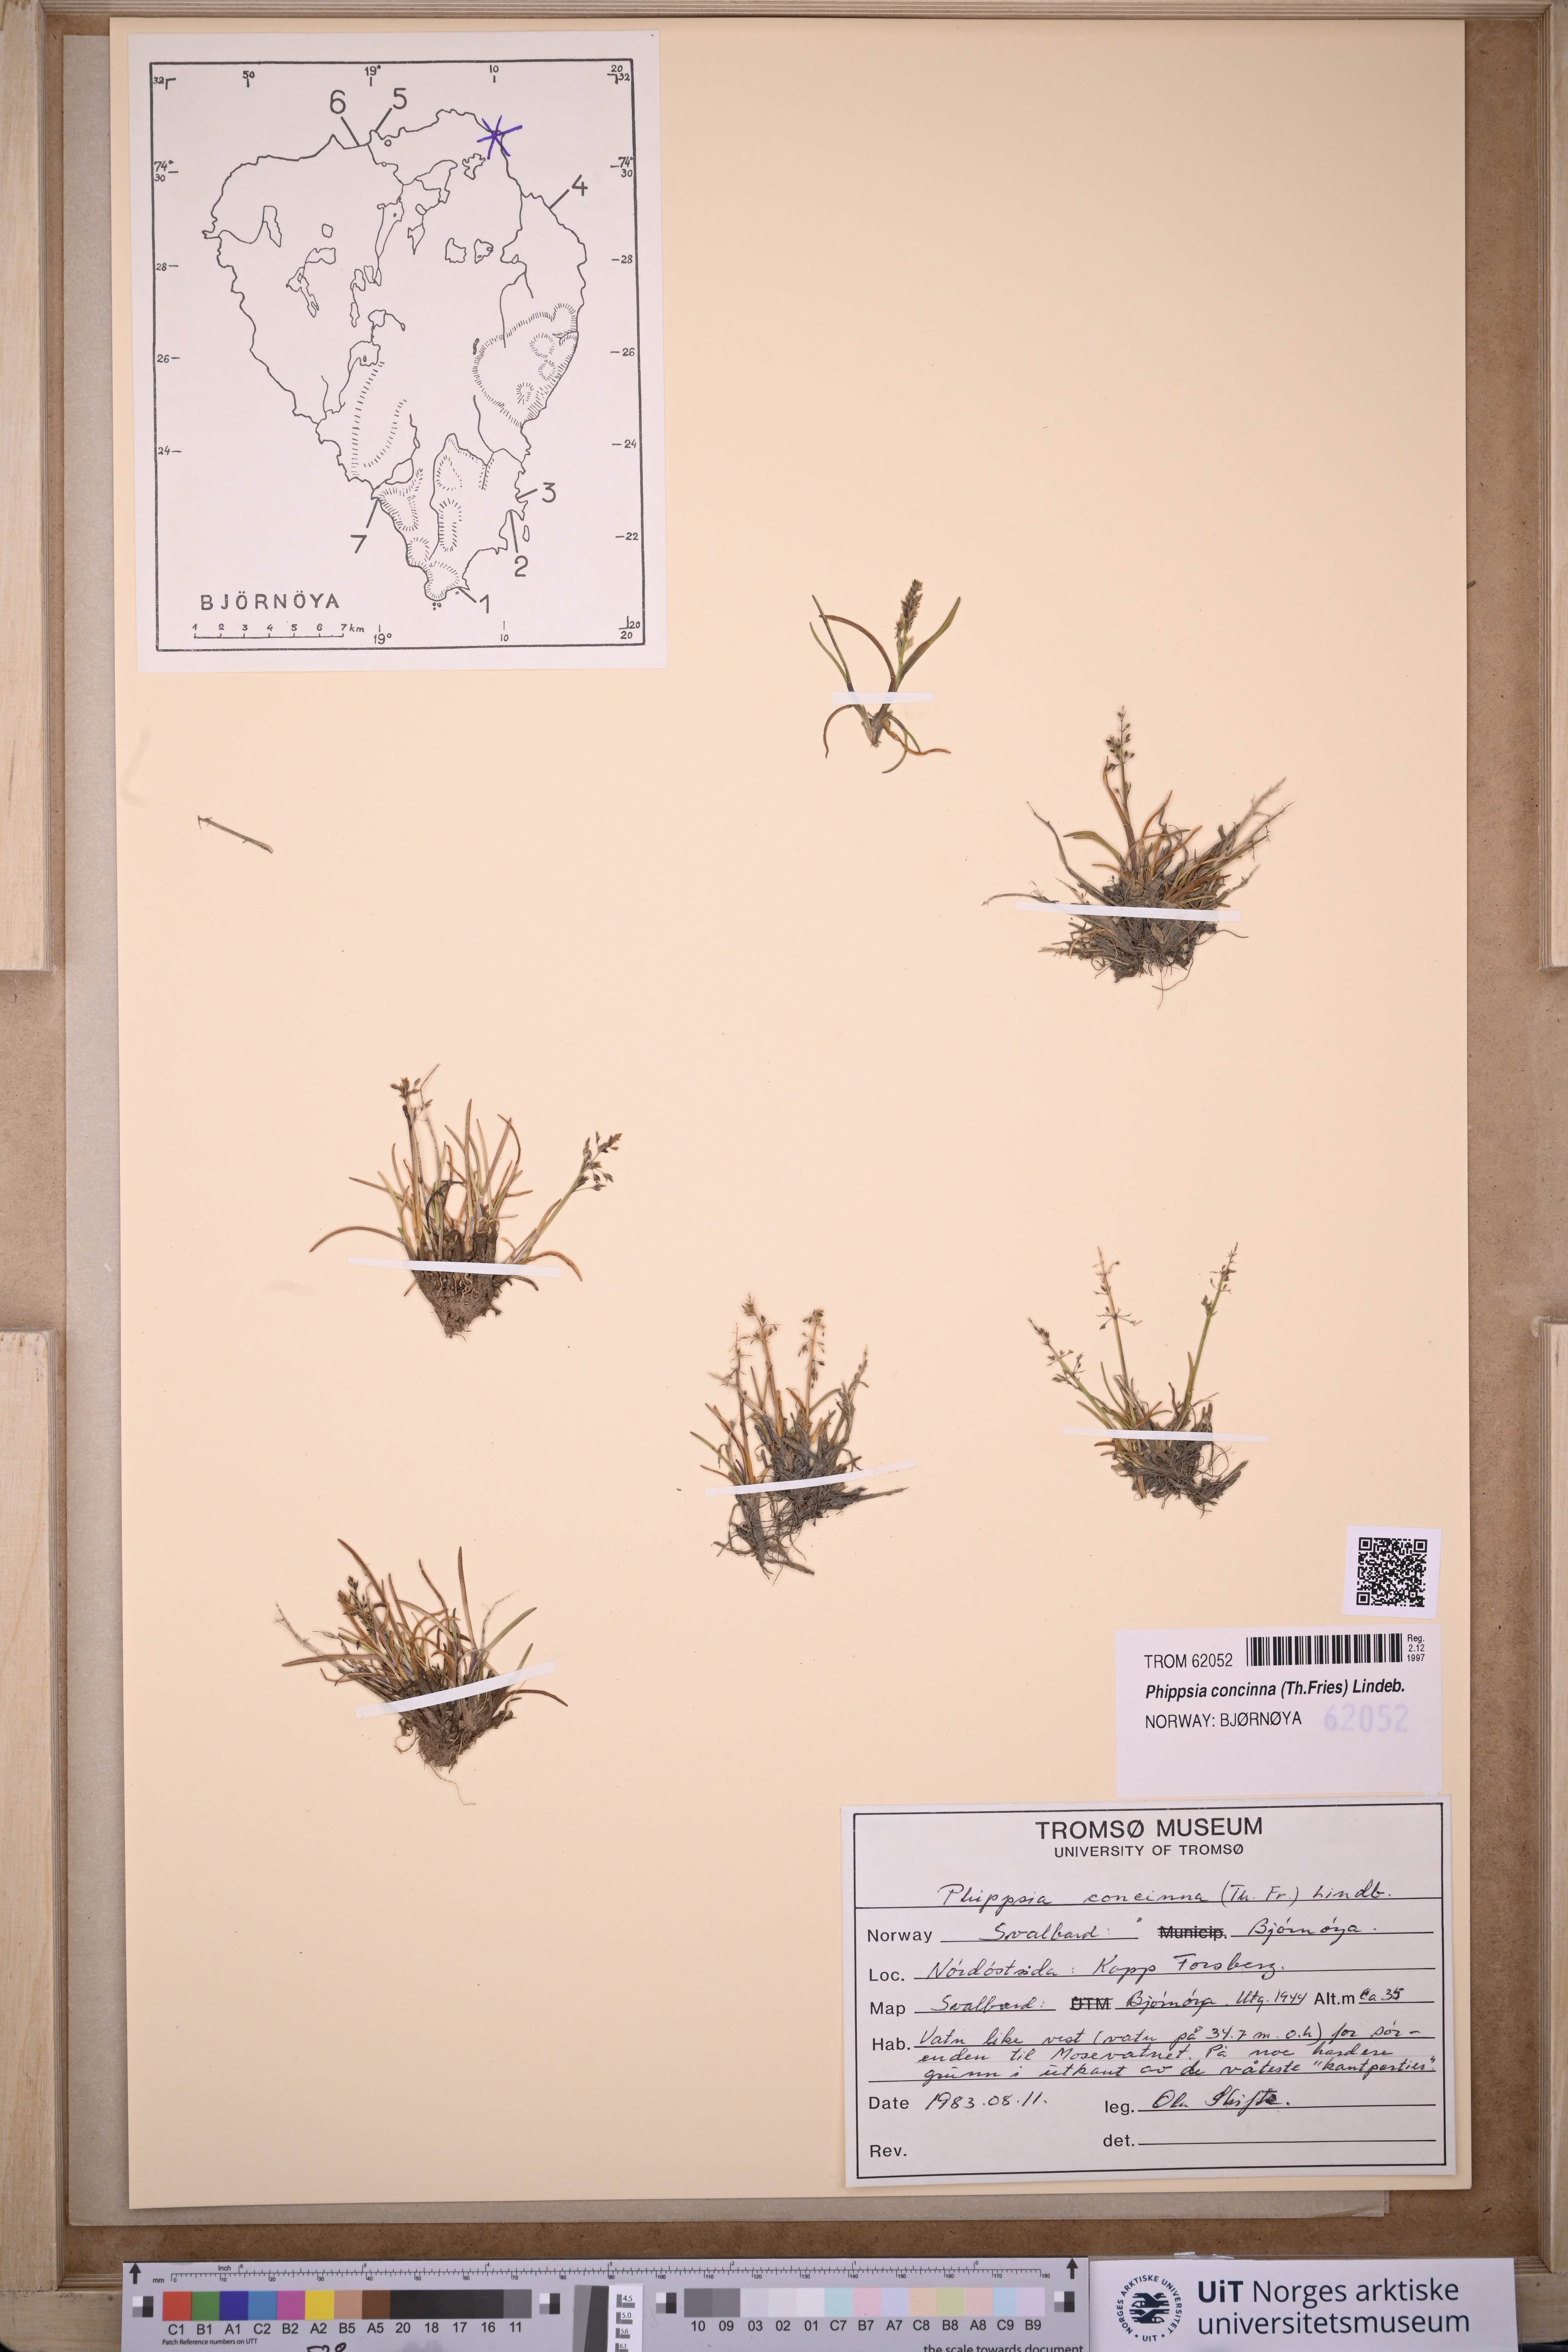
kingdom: Plantae
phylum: Tracheophyta
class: Liliopsida
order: Poales
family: Poaceae
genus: Phippsia
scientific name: Phippsia concinna
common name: Snowgrass
